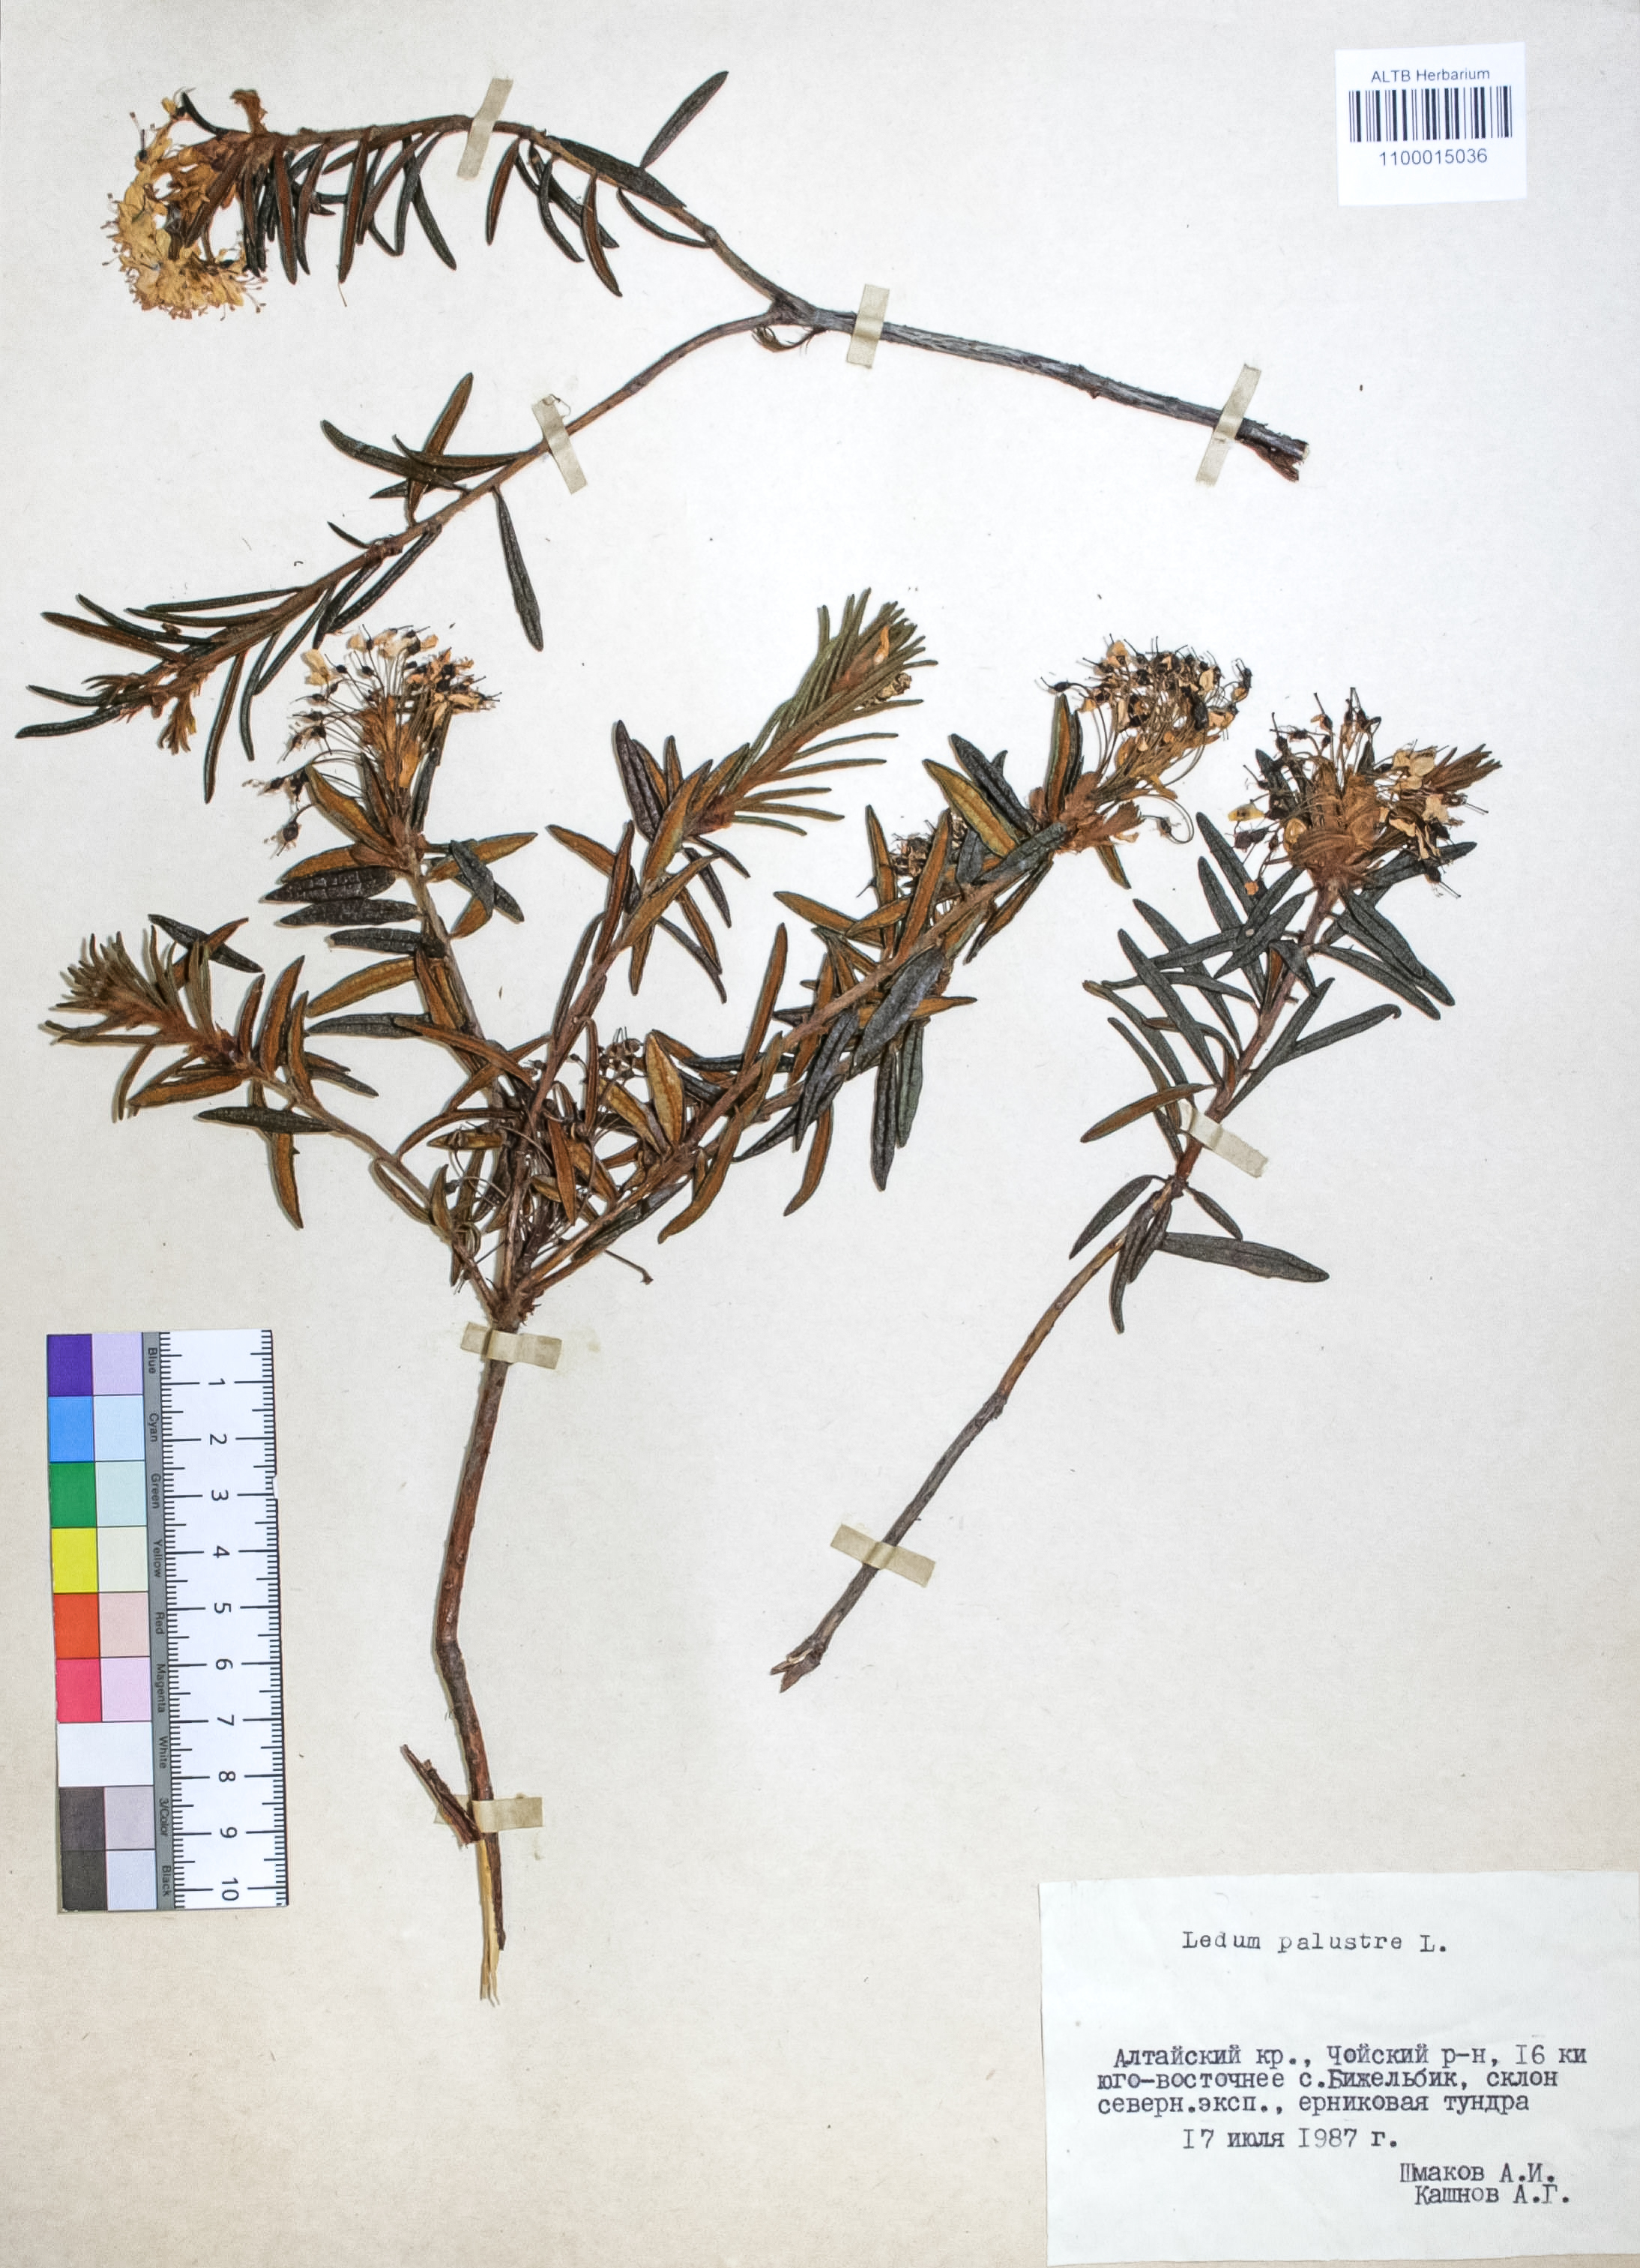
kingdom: Plantae
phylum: Tracheophyta
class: Magnoliopsida
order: Ericales
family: Ericaceae
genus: Rhododendron
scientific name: Rhododendron tomentosum
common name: Marsh labrador tea
